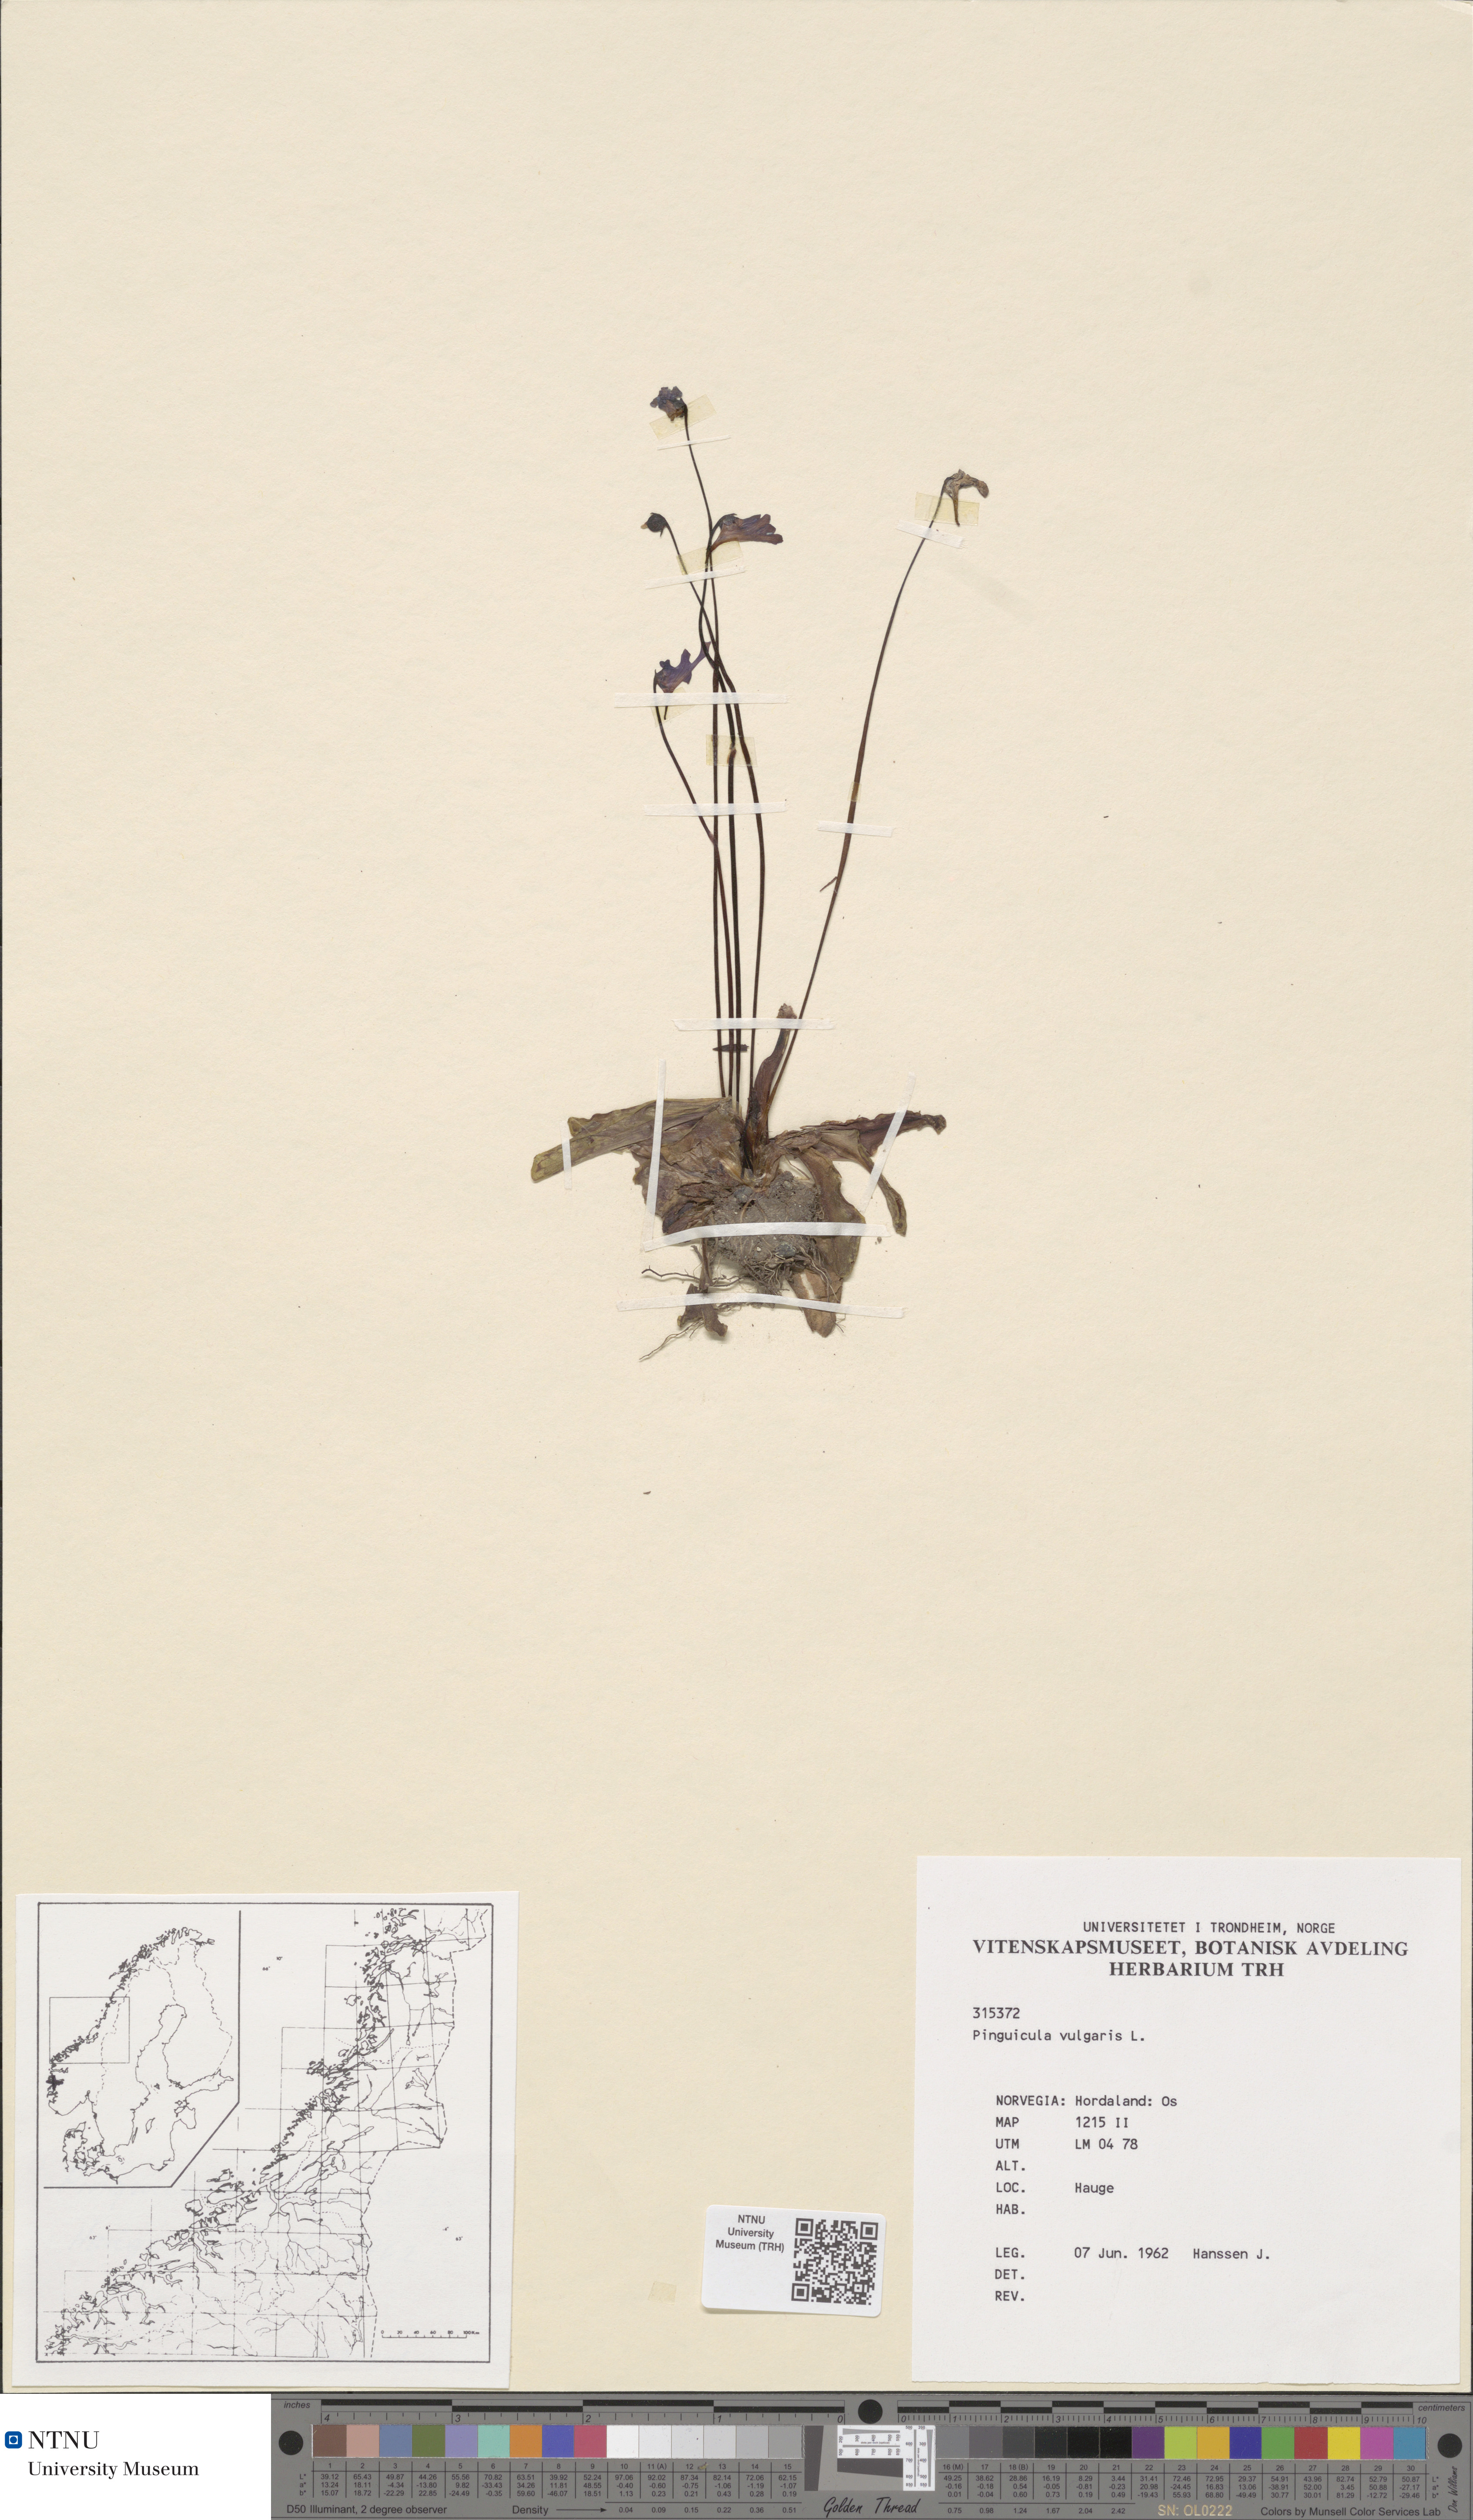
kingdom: Plantae
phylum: Tracheophyta
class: Magnoliopsida
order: Lamiales
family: Lentibulariaceae
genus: Pinguicula
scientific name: Pinguicula vulgaris
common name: Common butterwort
